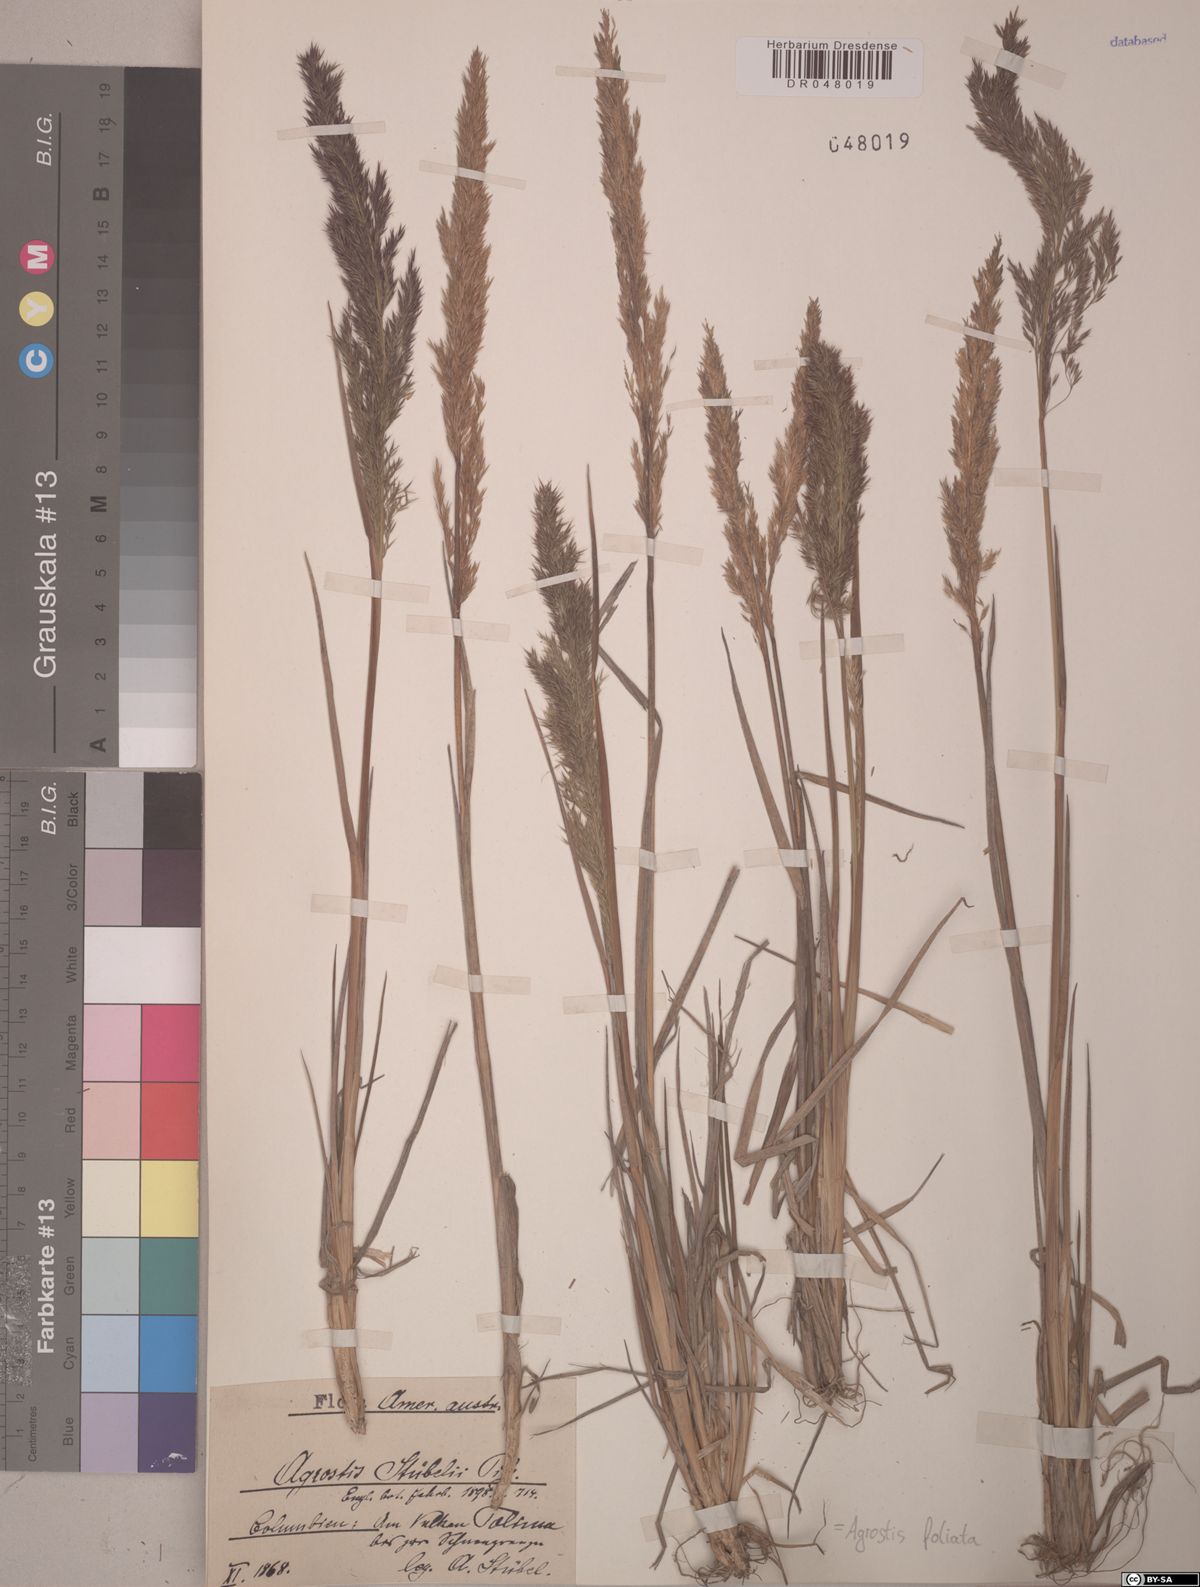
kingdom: Plantae
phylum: Tracheophyta
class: Liliopsida
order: Poales
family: Poaceae
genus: Agrostis
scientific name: Agrostis foliata
